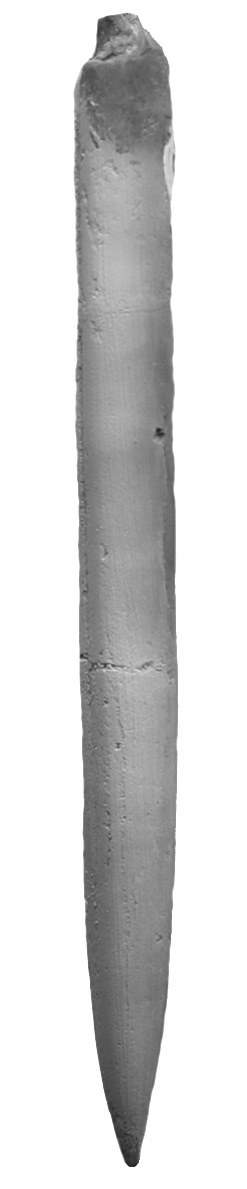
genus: Pachybelemnopsis
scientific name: Pachybelemnopsis
